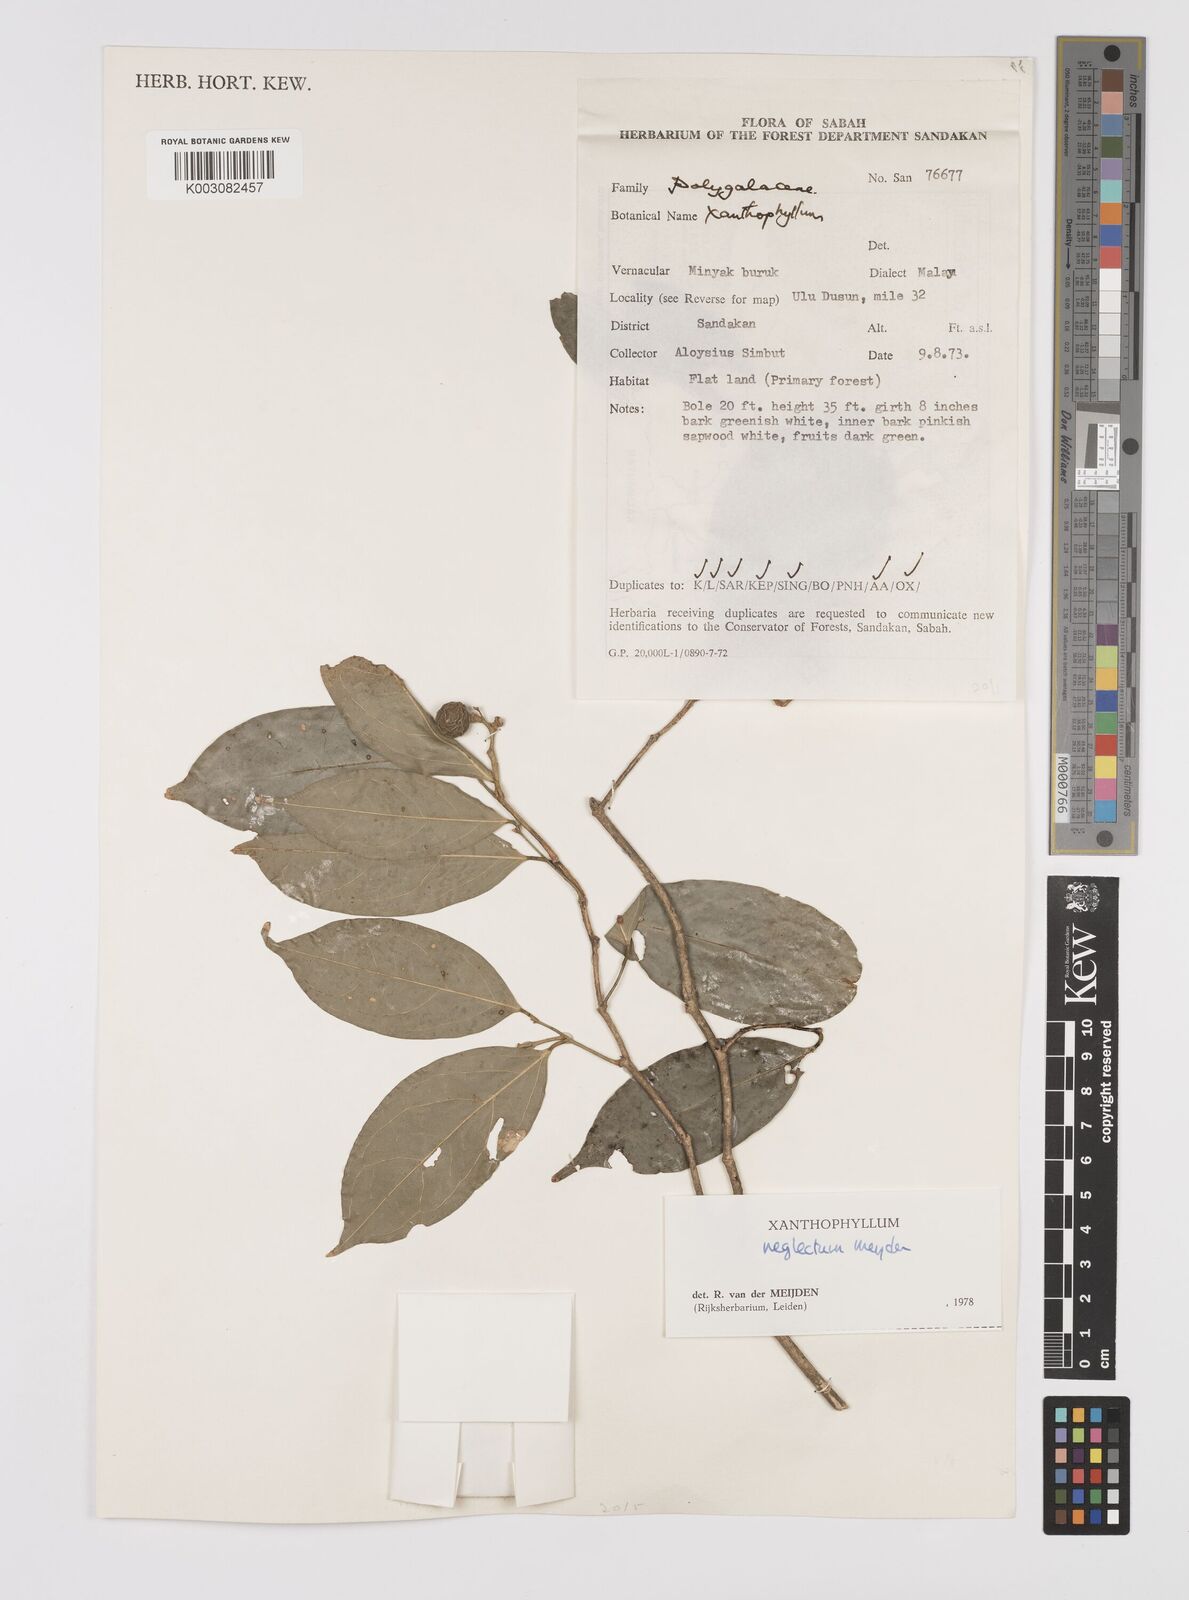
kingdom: Plantae
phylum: Tracheophyta
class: Magnoliopsida
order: Fabales
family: Polygalaceae
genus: Xanthophyllum
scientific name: Xanthophyllum neglectum
